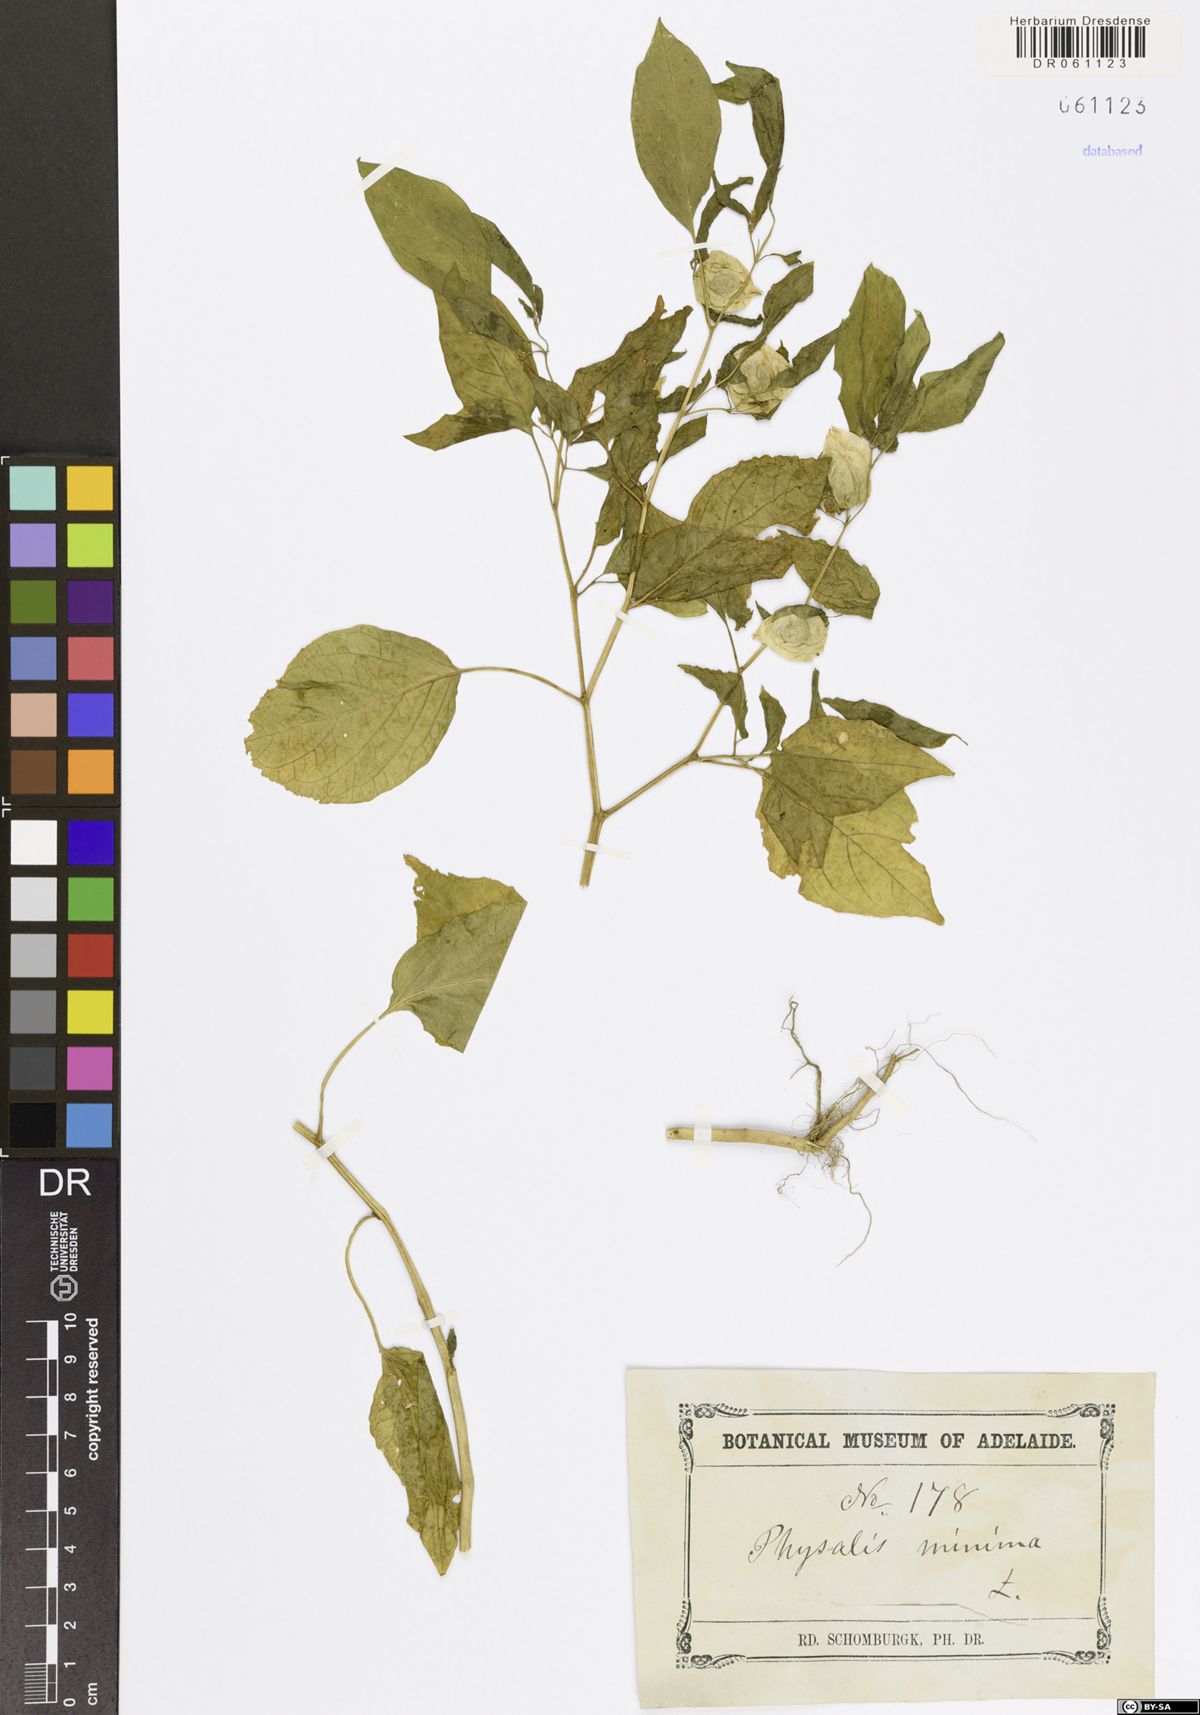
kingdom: Plantae
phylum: Tracheophyta
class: Magnoliopsida
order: Solanales
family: Solanaceae
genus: Physalis
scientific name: Physalis angulata
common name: Angular winter-cherry
